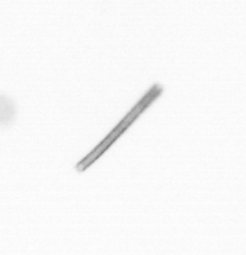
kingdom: Chromista
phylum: Ochrophyta
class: Bacillariophyceae
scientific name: Bacillariophyceae
